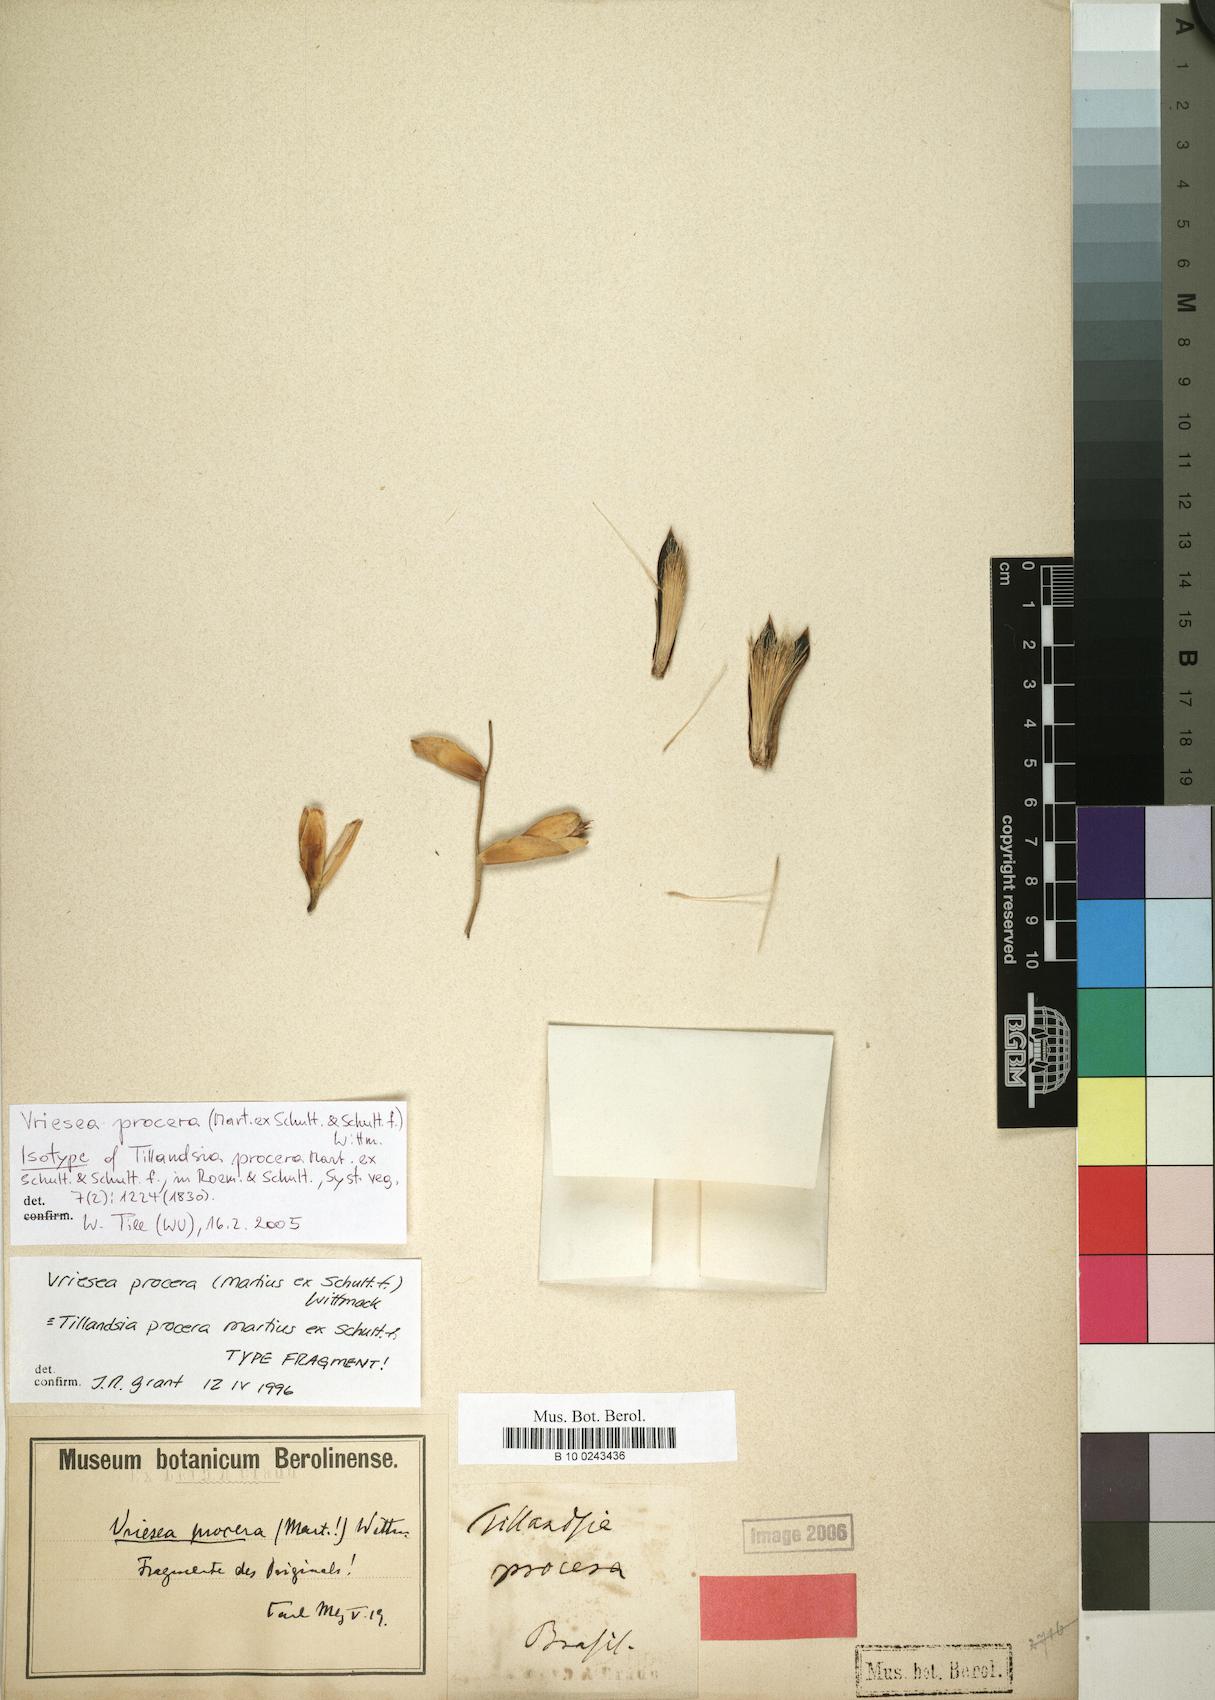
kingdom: Plantae
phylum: Tracheophyta
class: Liliopsida
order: Poales
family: Bromeliaceae
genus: Vriesea
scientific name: Vriesea procera
